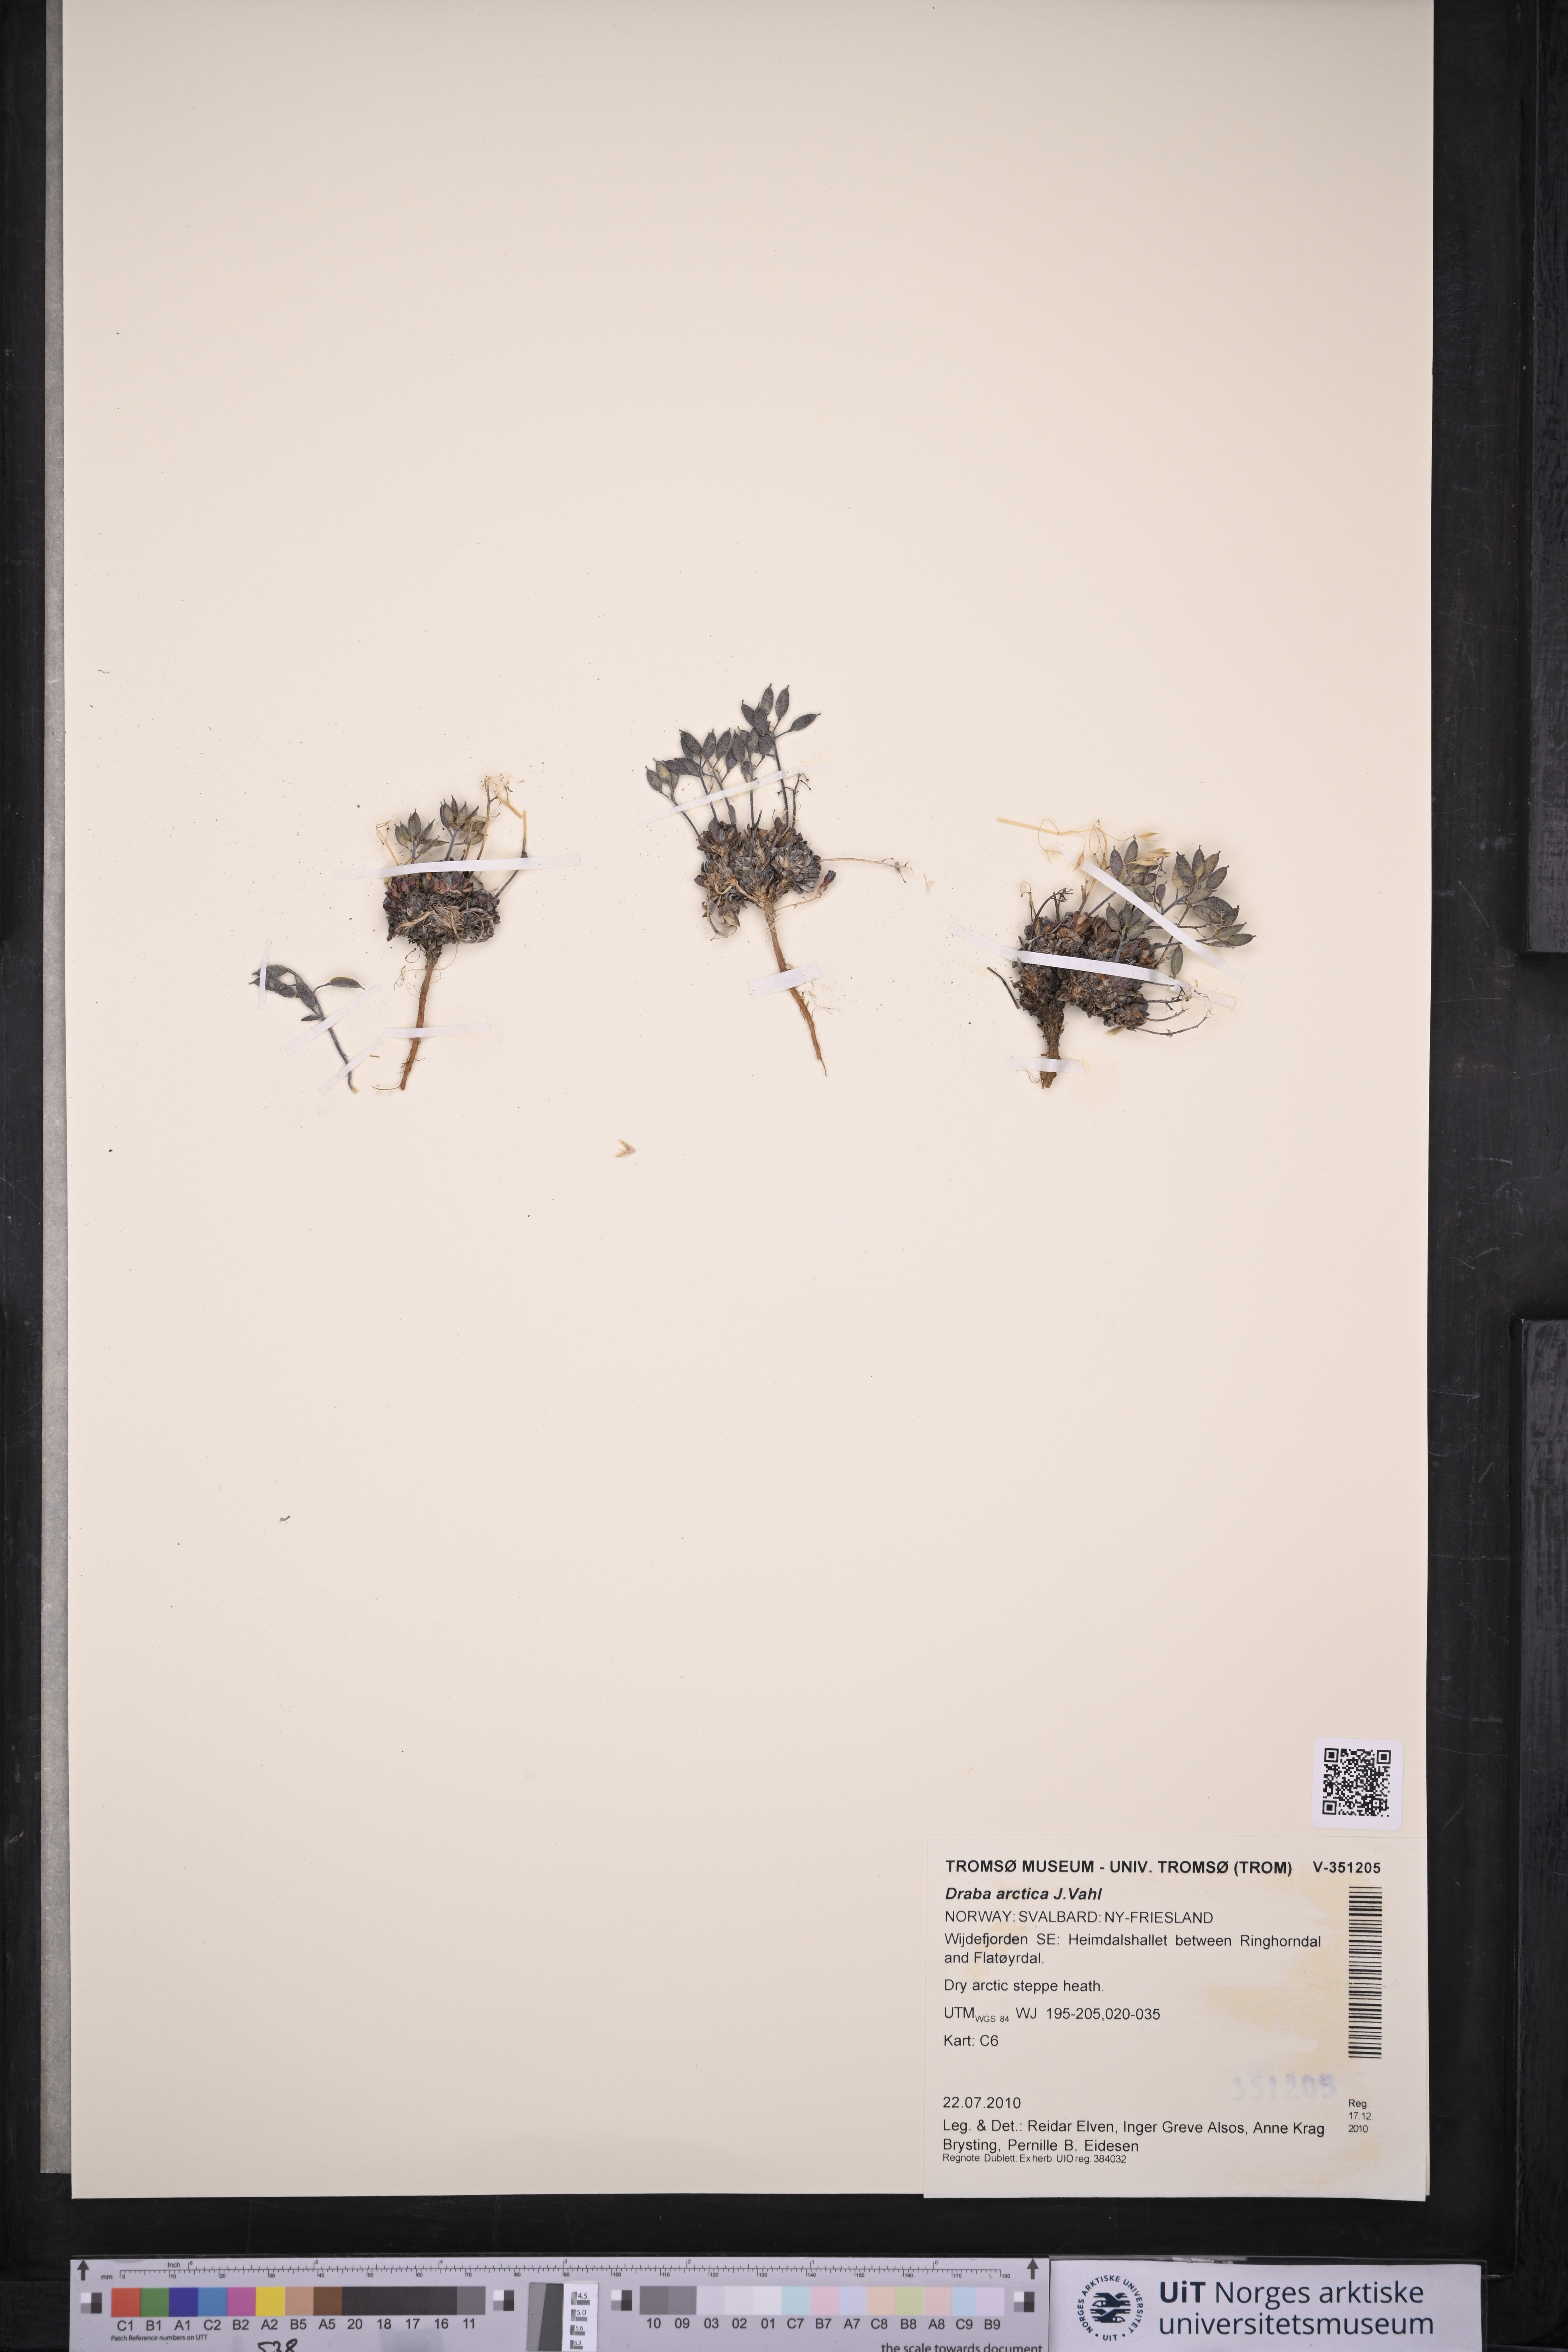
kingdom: Plantae
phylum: Tracheophyta
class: Magnoliopsida
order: Brassicales
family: Brassicaceae
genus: Draba
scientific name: Draba arctica
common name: Arctic draba
